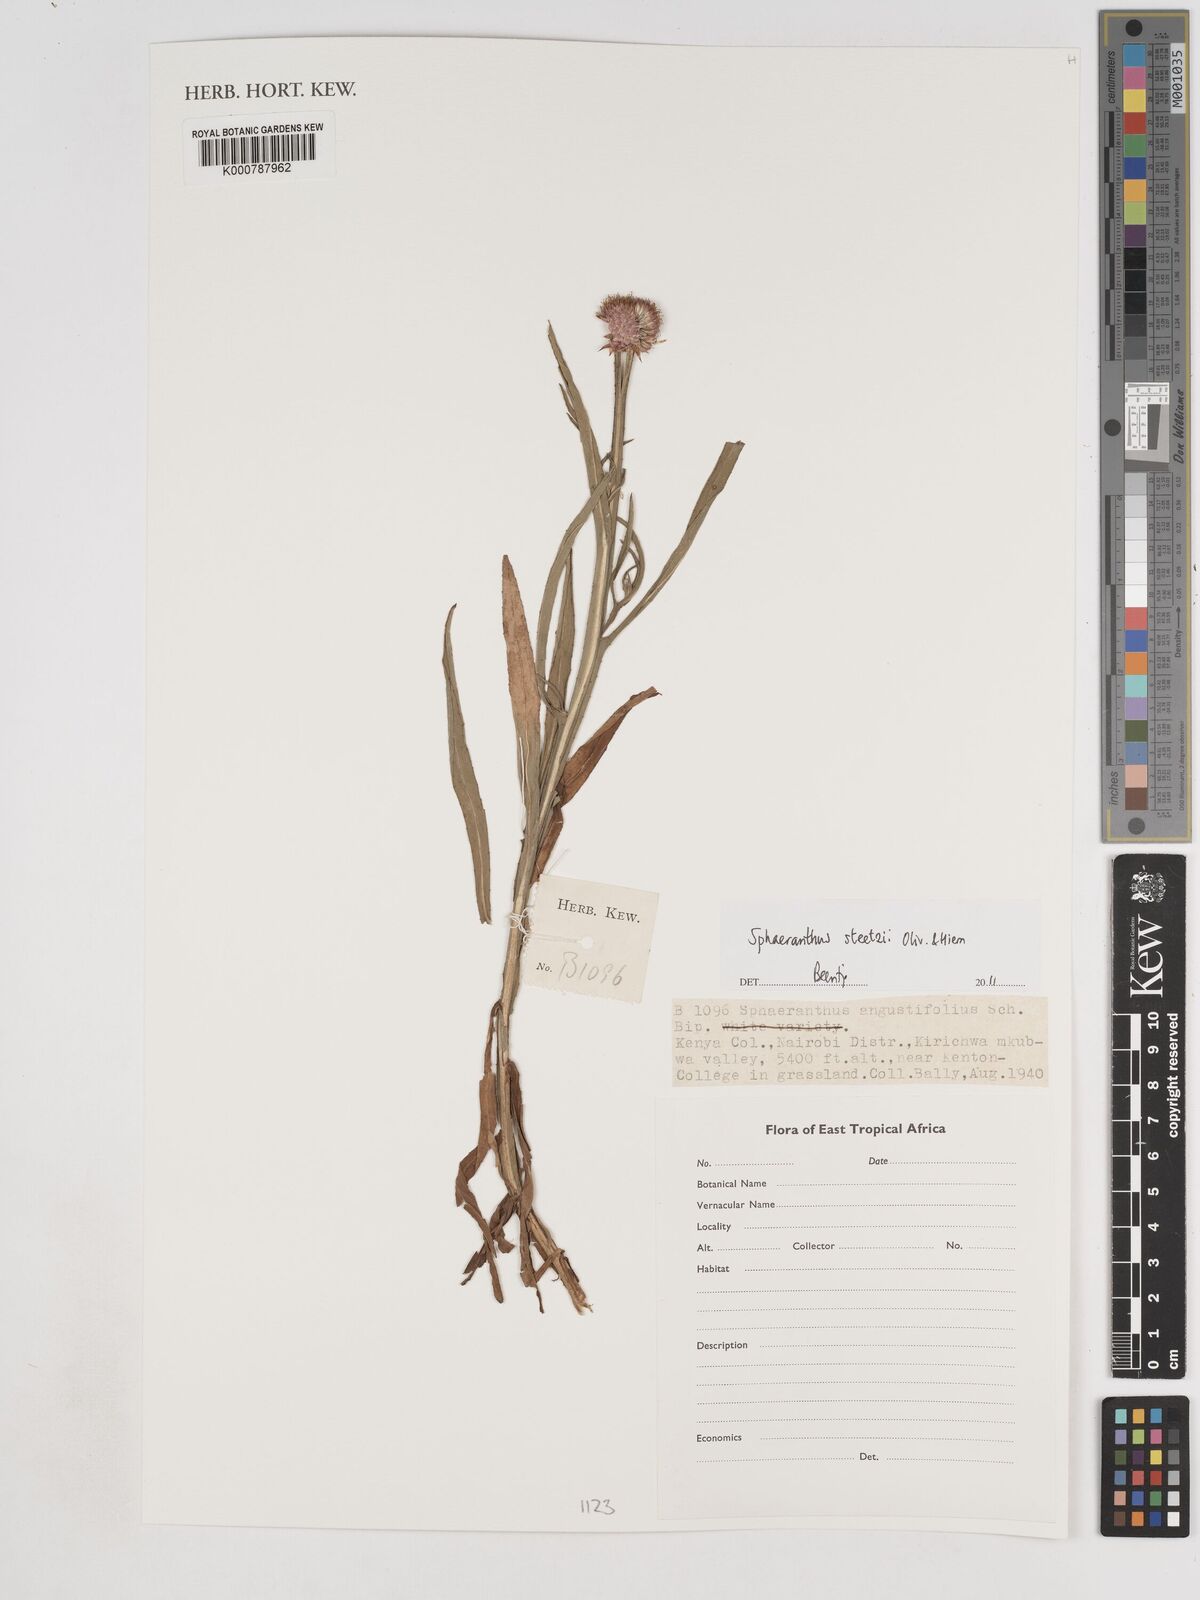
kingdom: Plantae
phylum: Tracheophyta
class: Magnoliopsida
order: Asterales
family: Asteraceae
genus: Sphaeranthus
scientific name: Sphaeranthus steetzii
